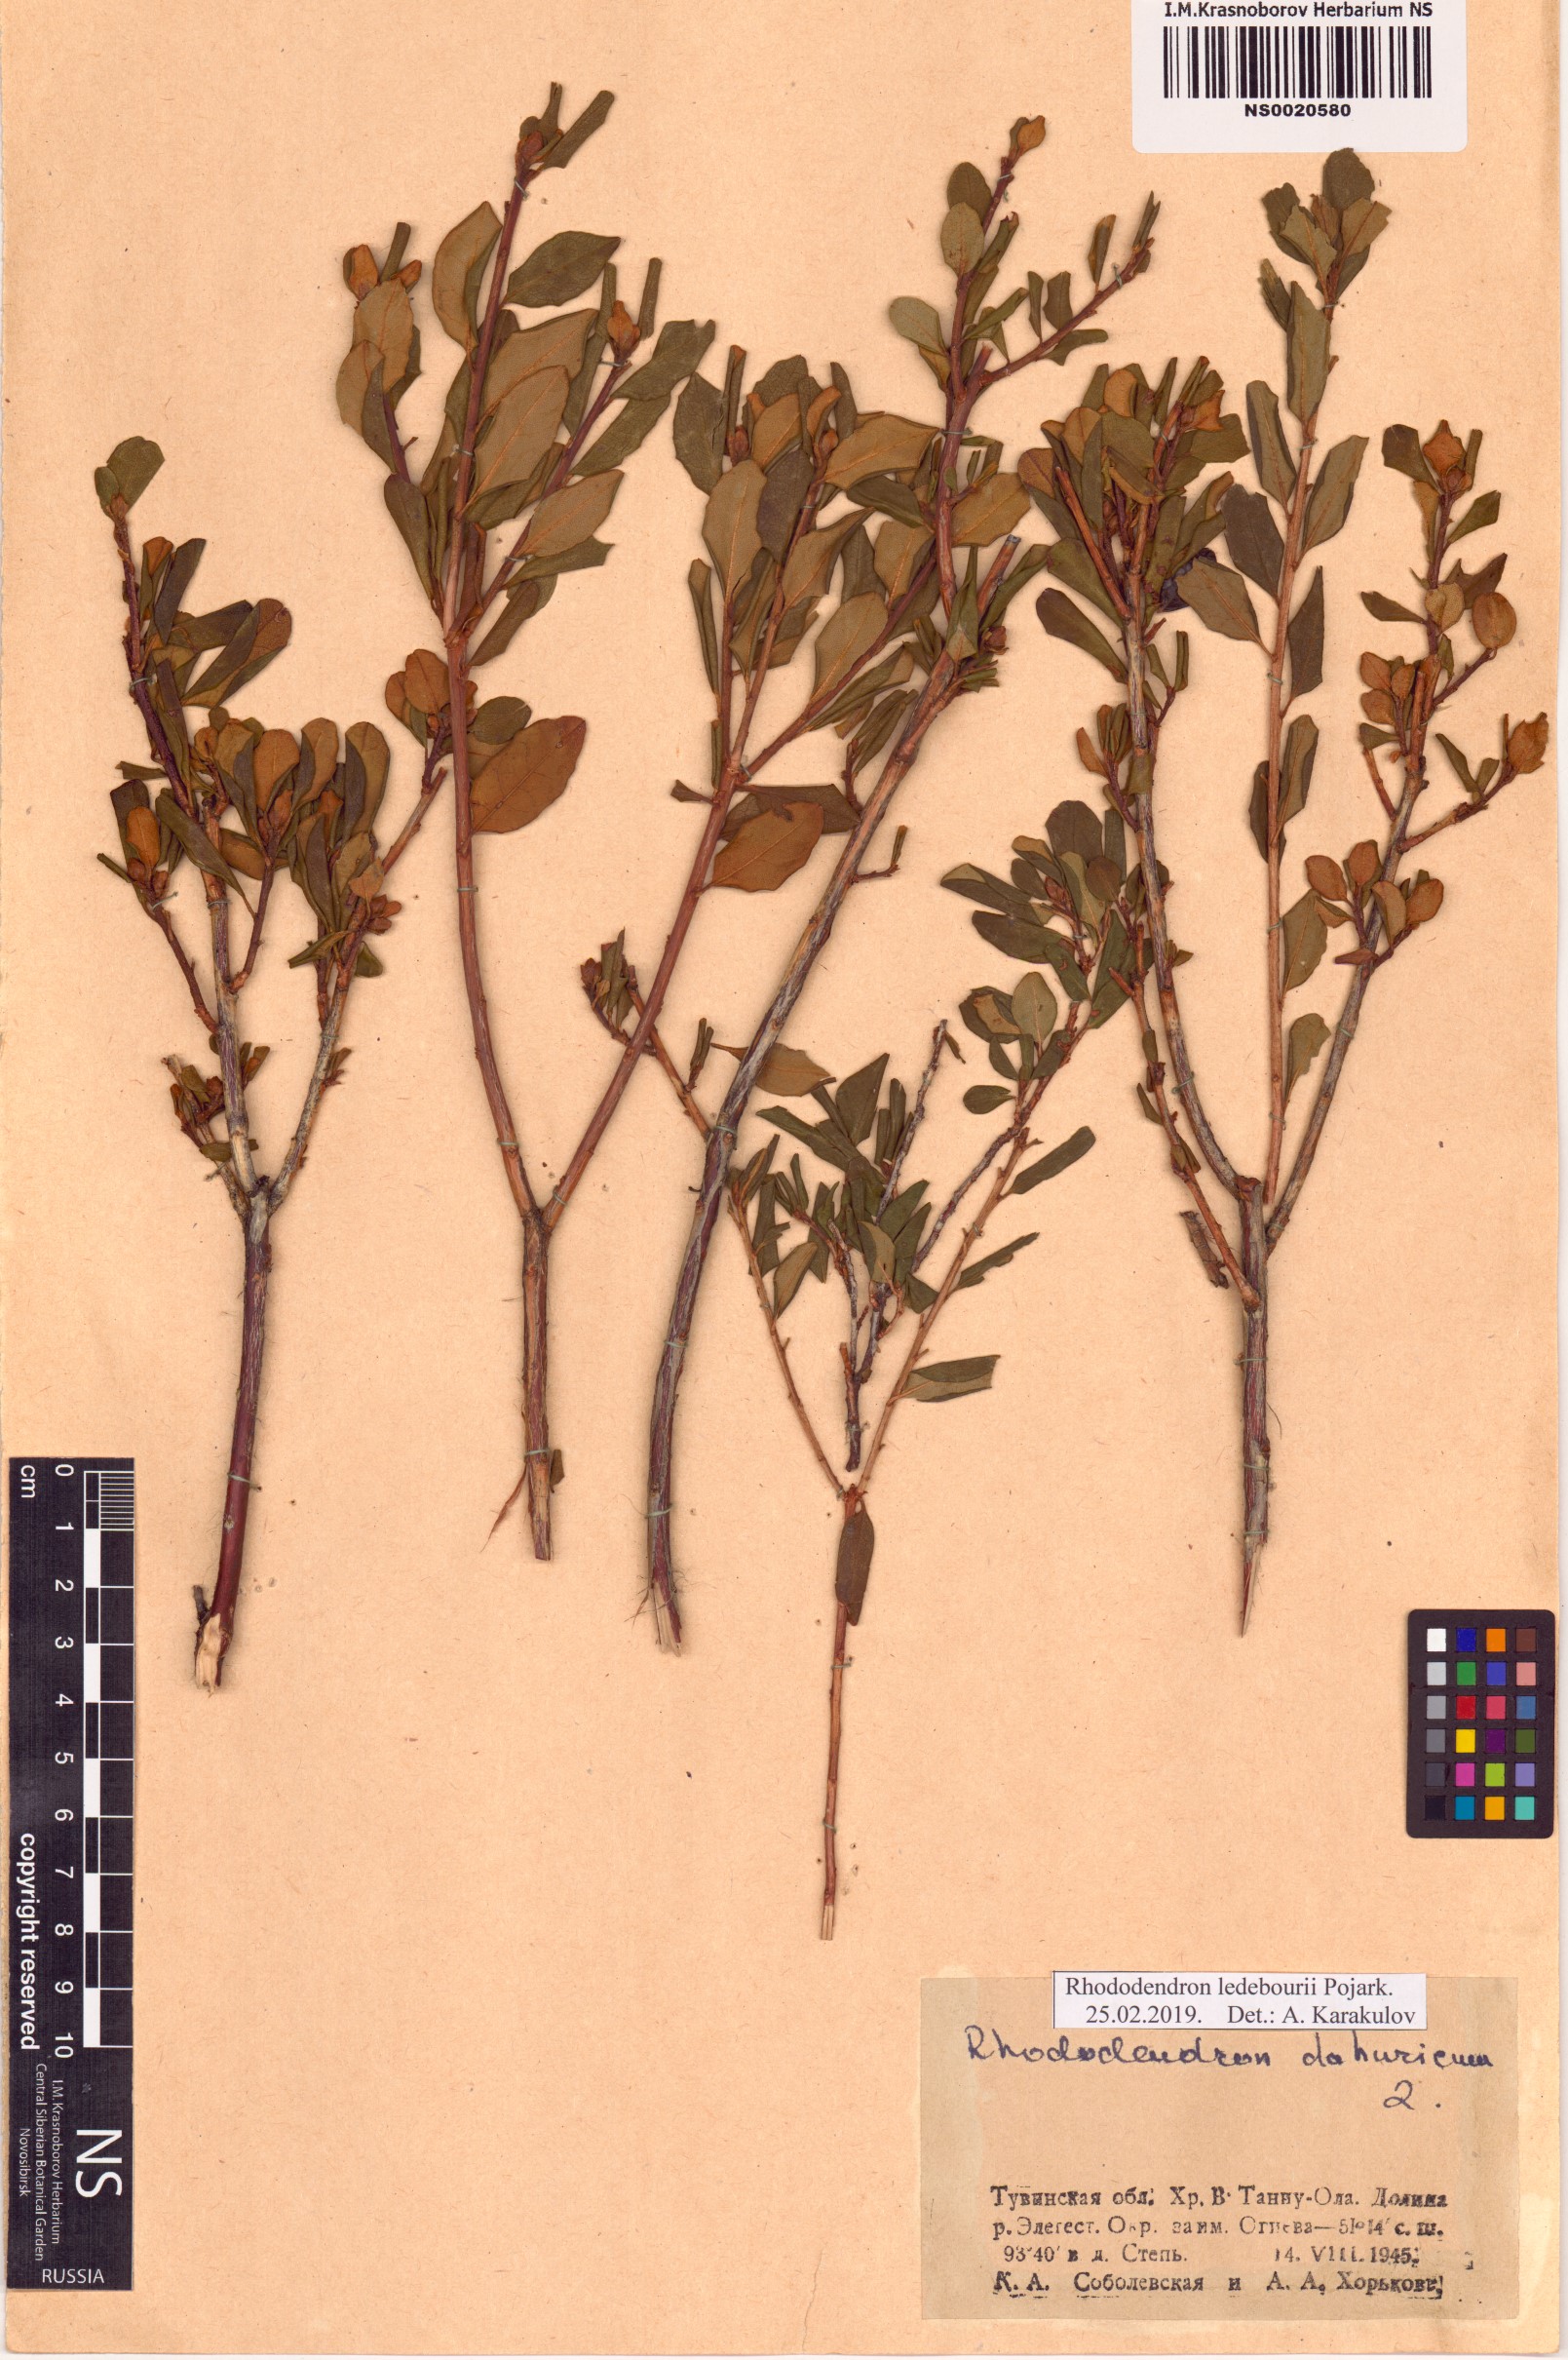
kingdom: Plantae
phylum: Tracheophyta
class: Magnoliopsida
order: Ericales
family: Ericaceae
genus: Rhododendron
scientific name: Rhododendron dauricum
